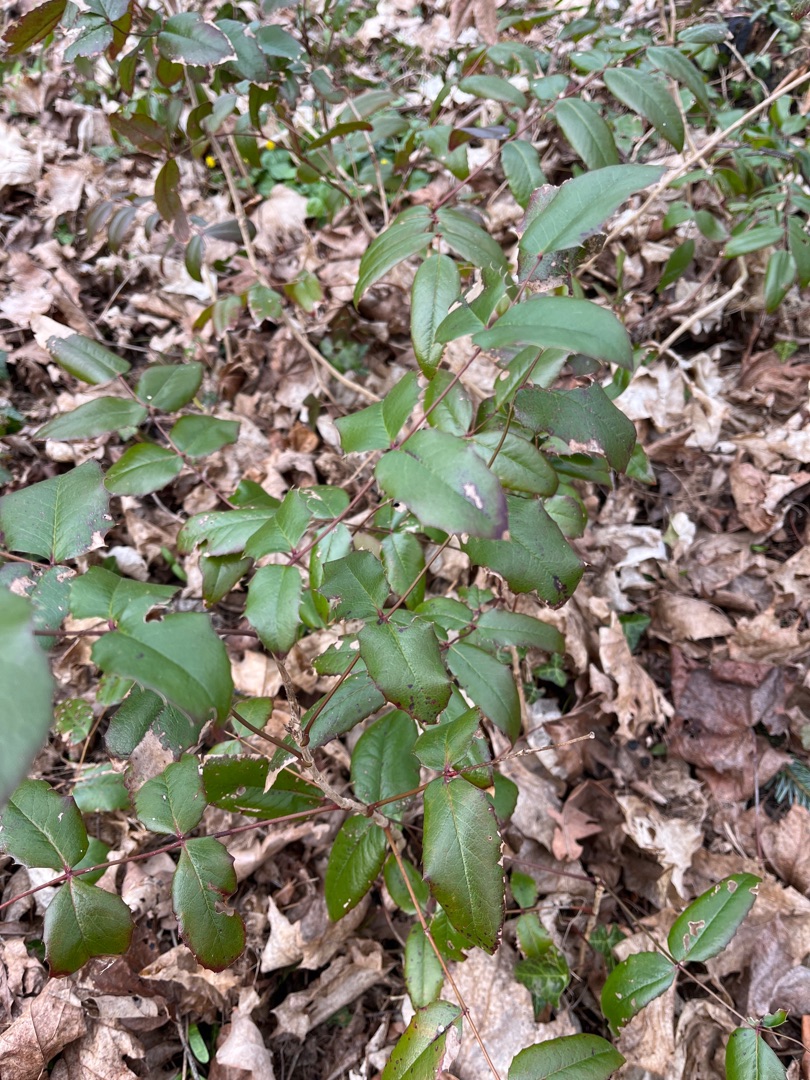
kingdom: Plantae
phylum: Tracheophyta
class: Magnoliopsida
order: Ranunculales
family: Berberidaceae
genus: Mahonia
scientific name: Mahonia aquifolium
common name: Almindelig mahonie
